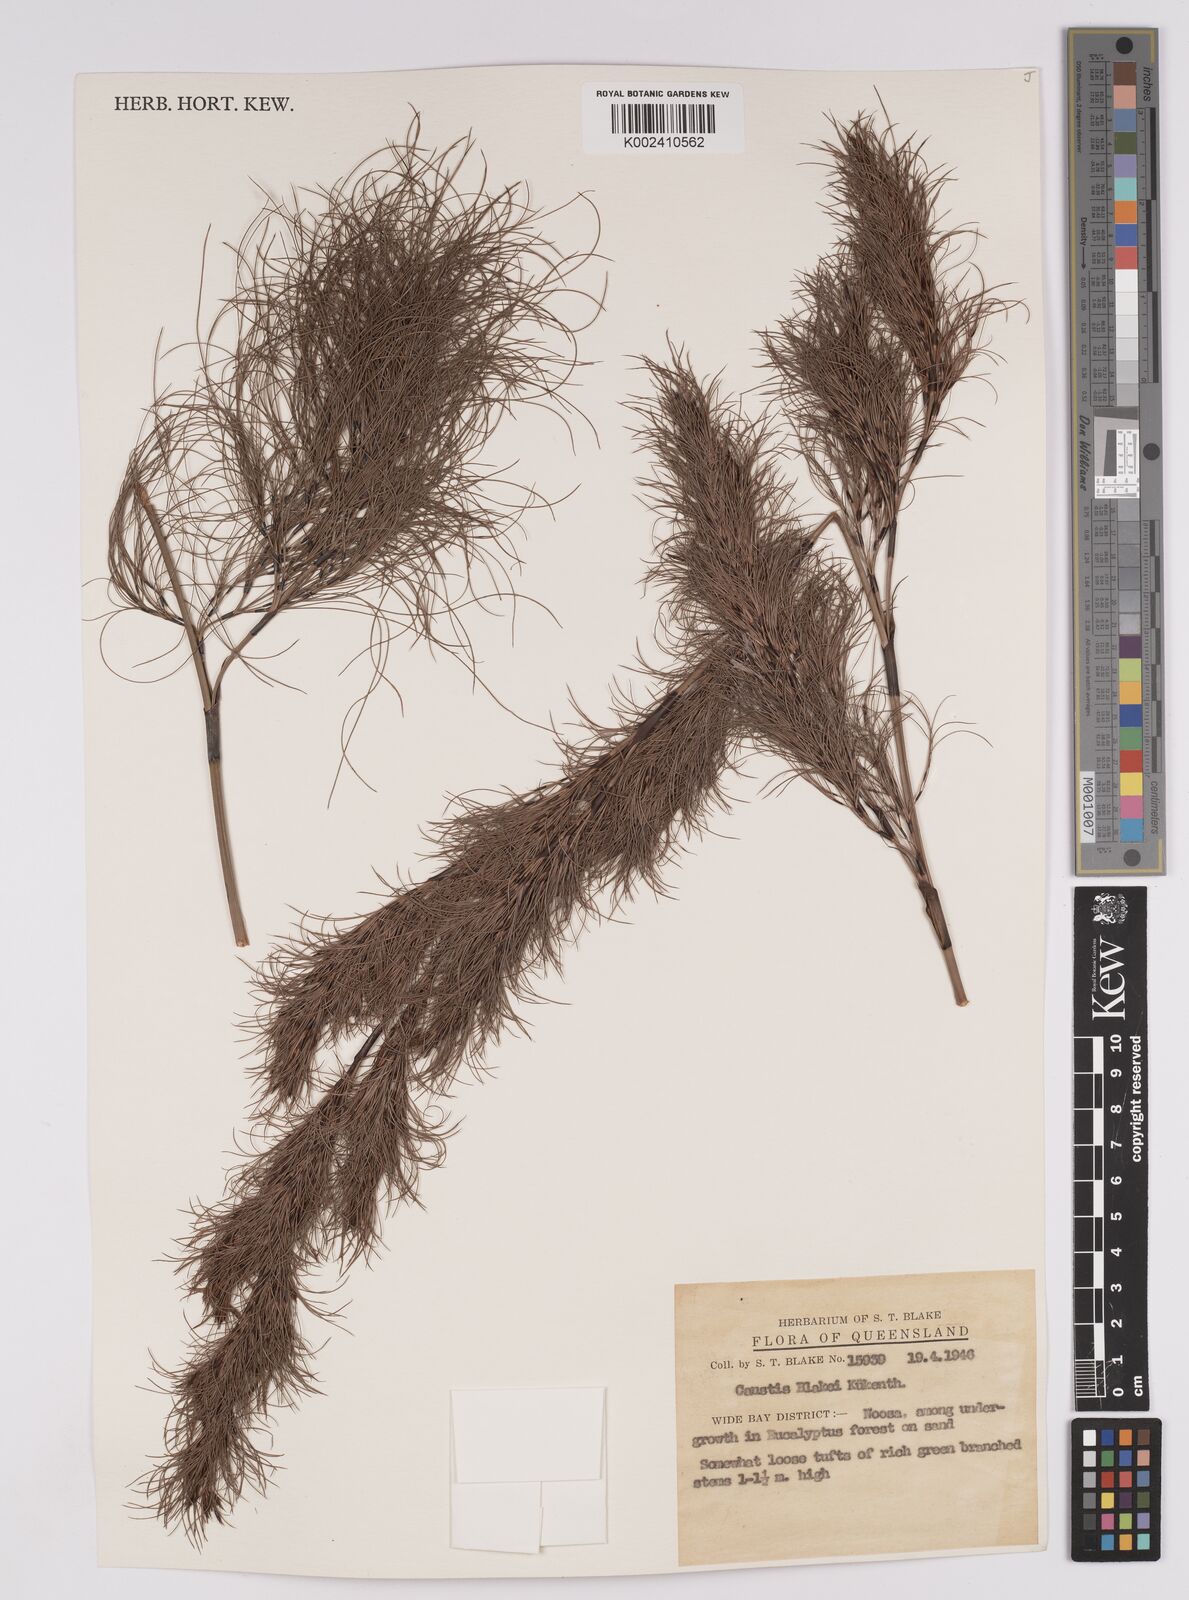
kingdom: Plantae
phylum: Tracheophyta
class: Liliopsida
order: Poales
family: Cyperaceae
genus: Caustis
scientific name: Caustis blakei
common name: Foxtail-fern
